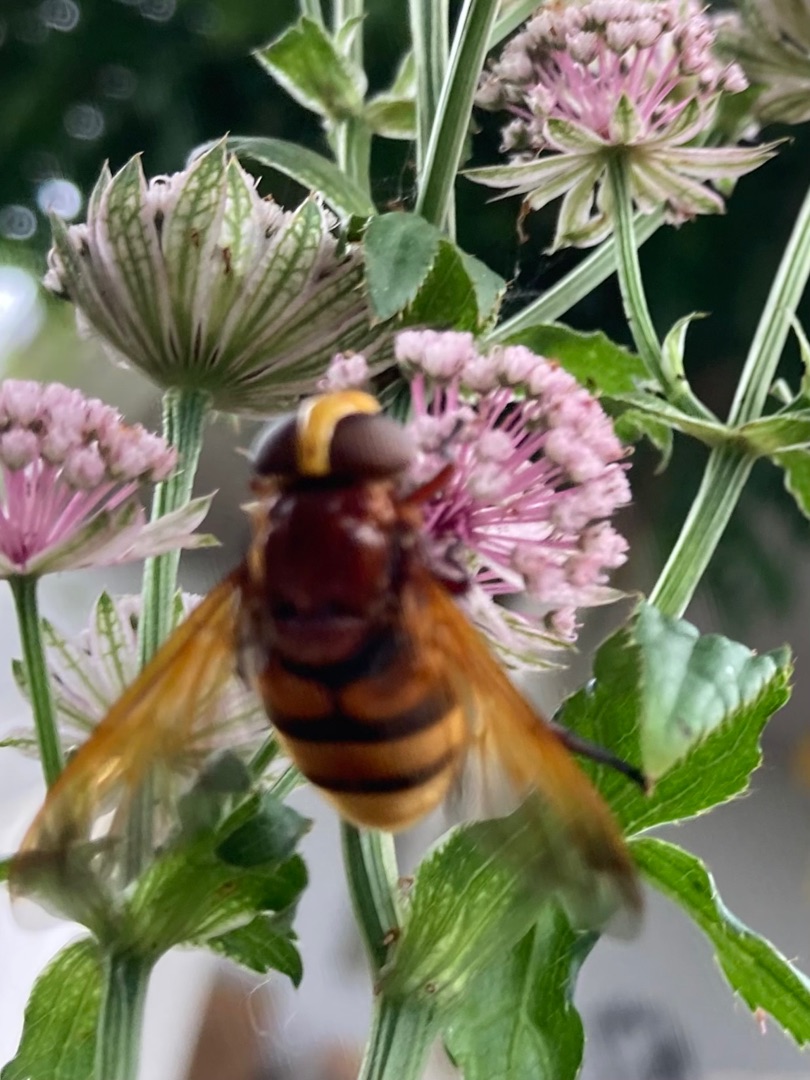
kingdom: Animalia
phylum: Arthropoda
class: Insecta
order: Diptera
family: Syrphidae
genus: Volucella
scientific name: Volucella zonaria
